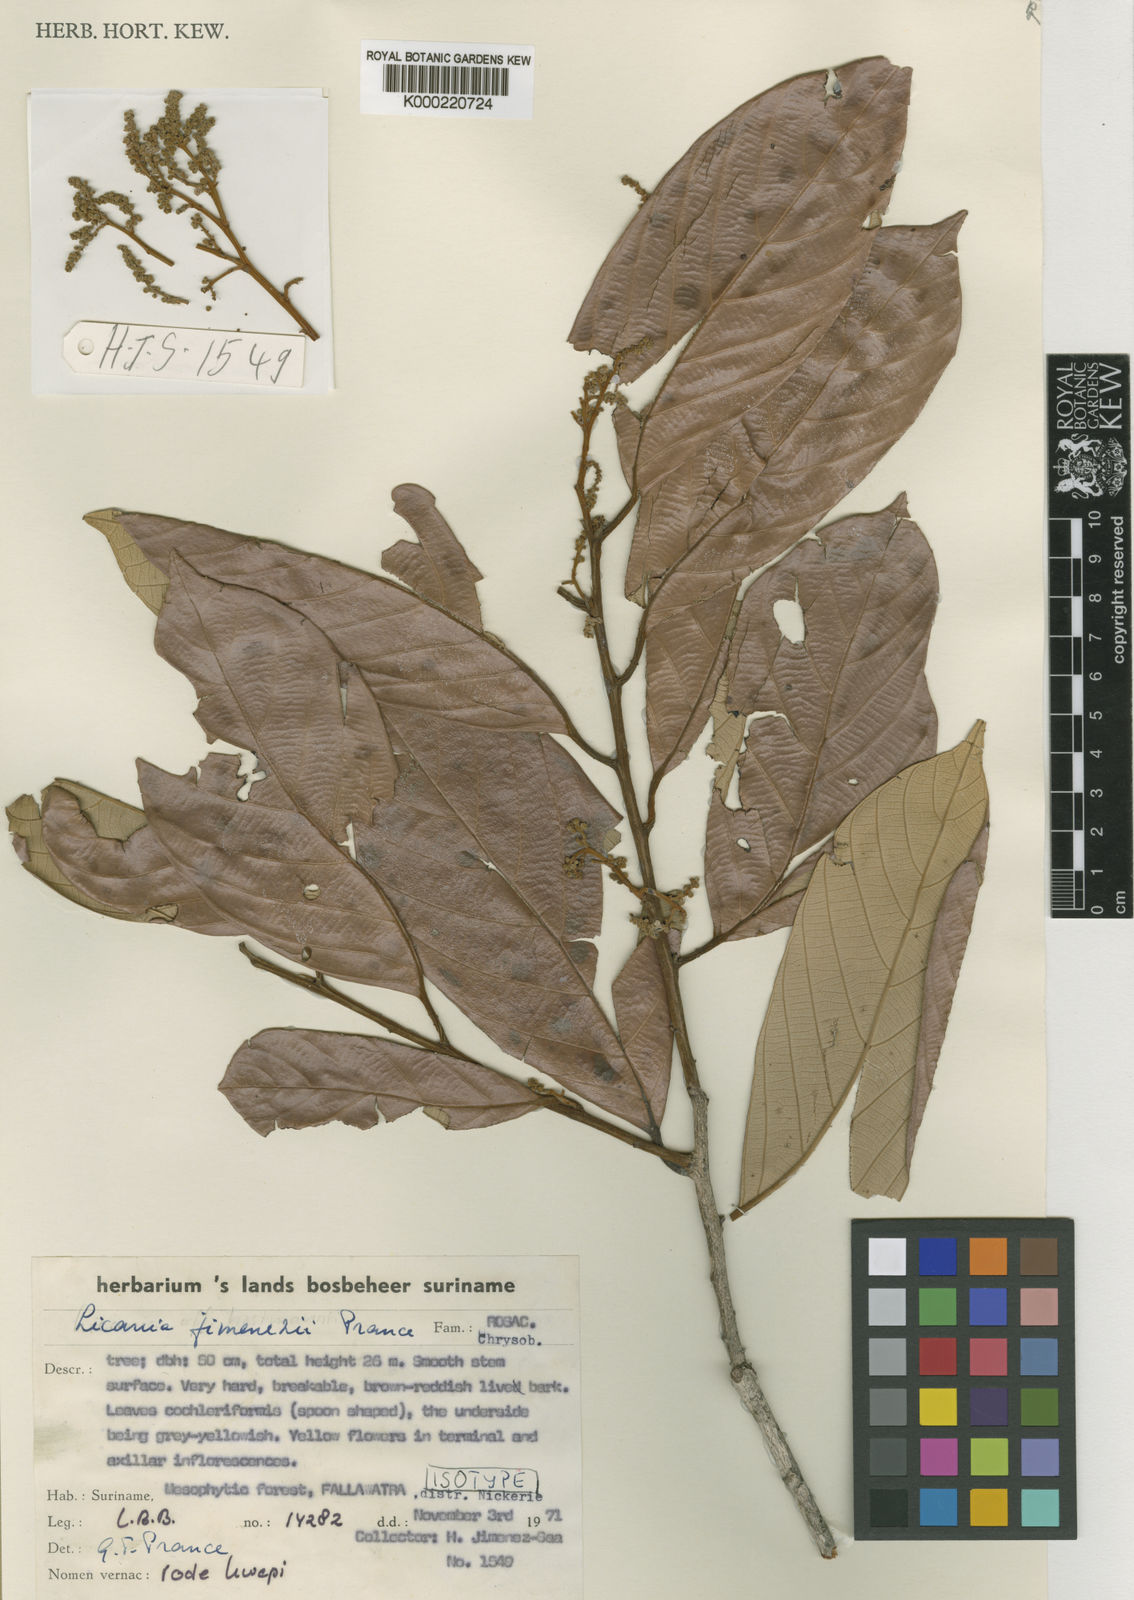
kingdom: Plantae
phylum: Tracheophyta
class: Magnoliopsida
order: Malpighiales
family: Chrysobalanaceae
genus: Licania
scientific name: Licania jimenezii
